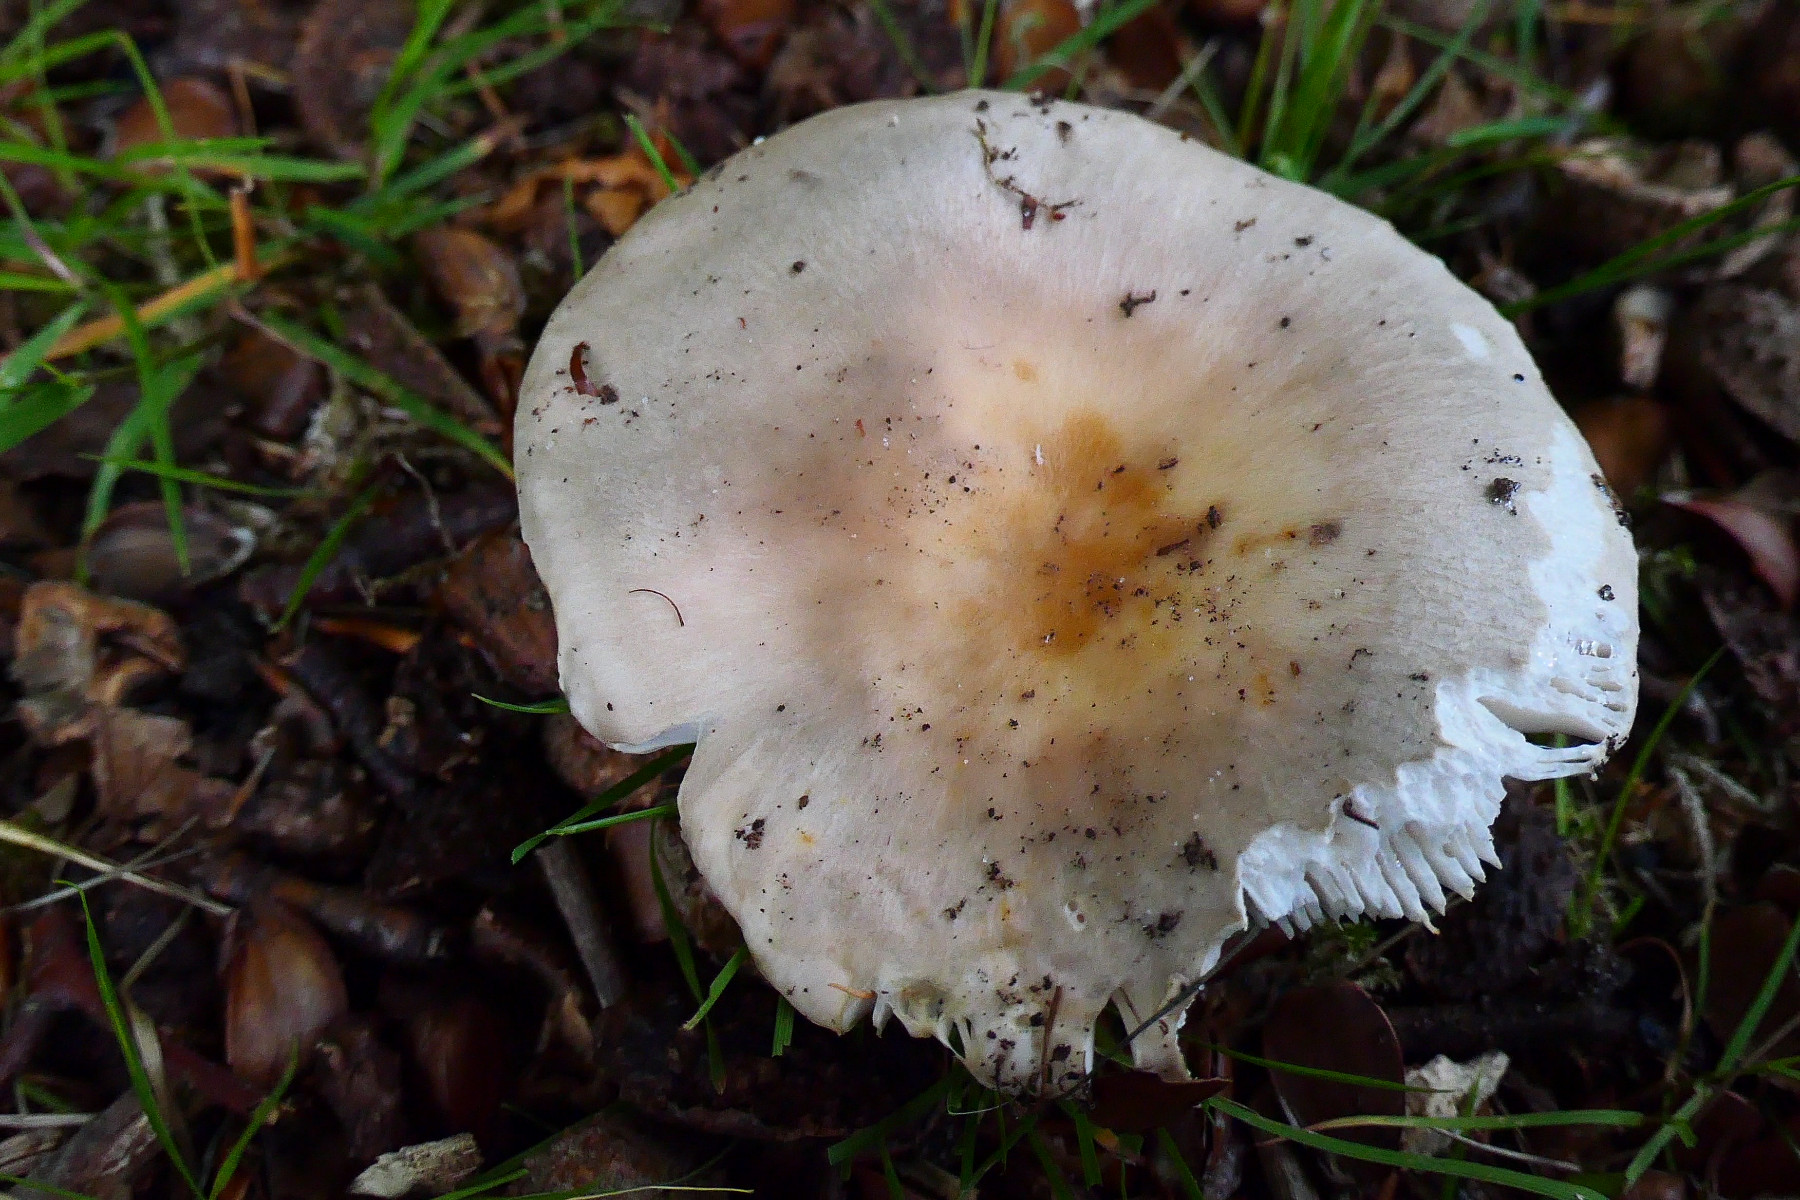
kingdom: Fungi
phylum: Basidiomycota
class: Agaricomycetes
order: Russulales
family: Russulaceae
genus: Russula
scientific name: Russula vesca
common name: spiselig skørhat
